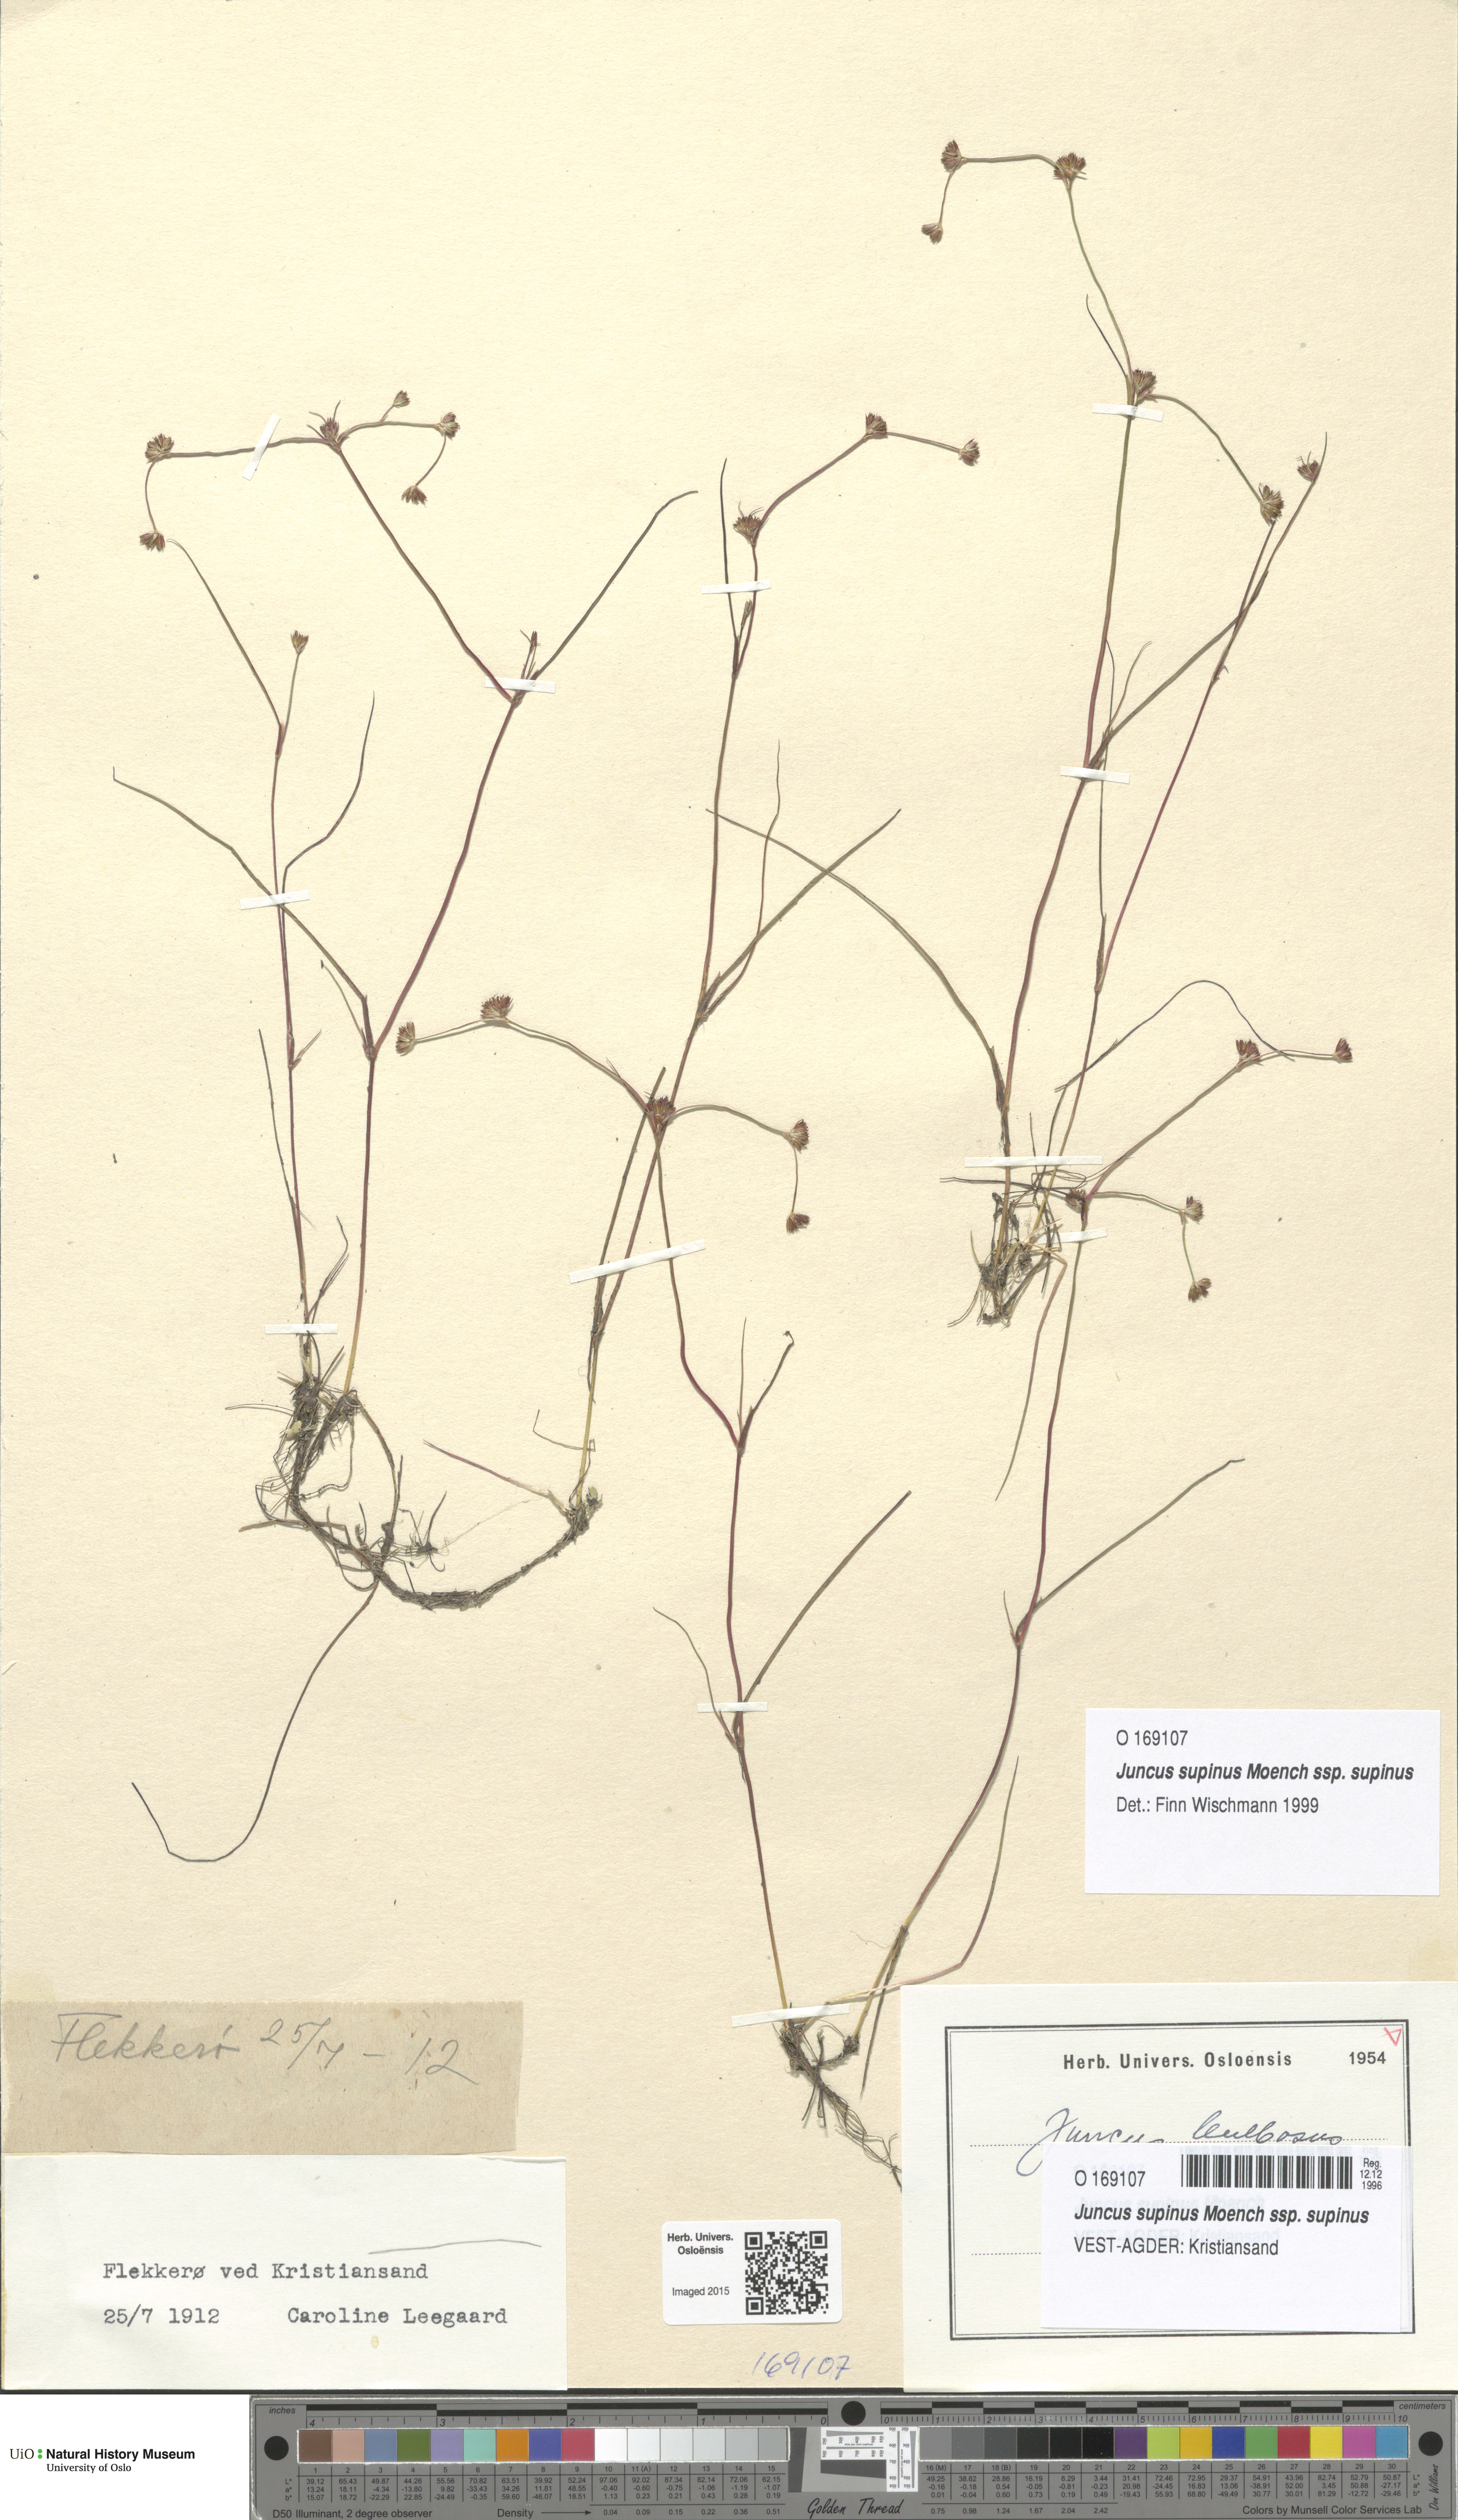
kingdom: Plantae
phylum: Tracheophyta
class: Liliopsida
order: Poales
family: Juncaceae
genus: Juncus
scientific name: Juncus bulbosus
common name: Bulbous rush
